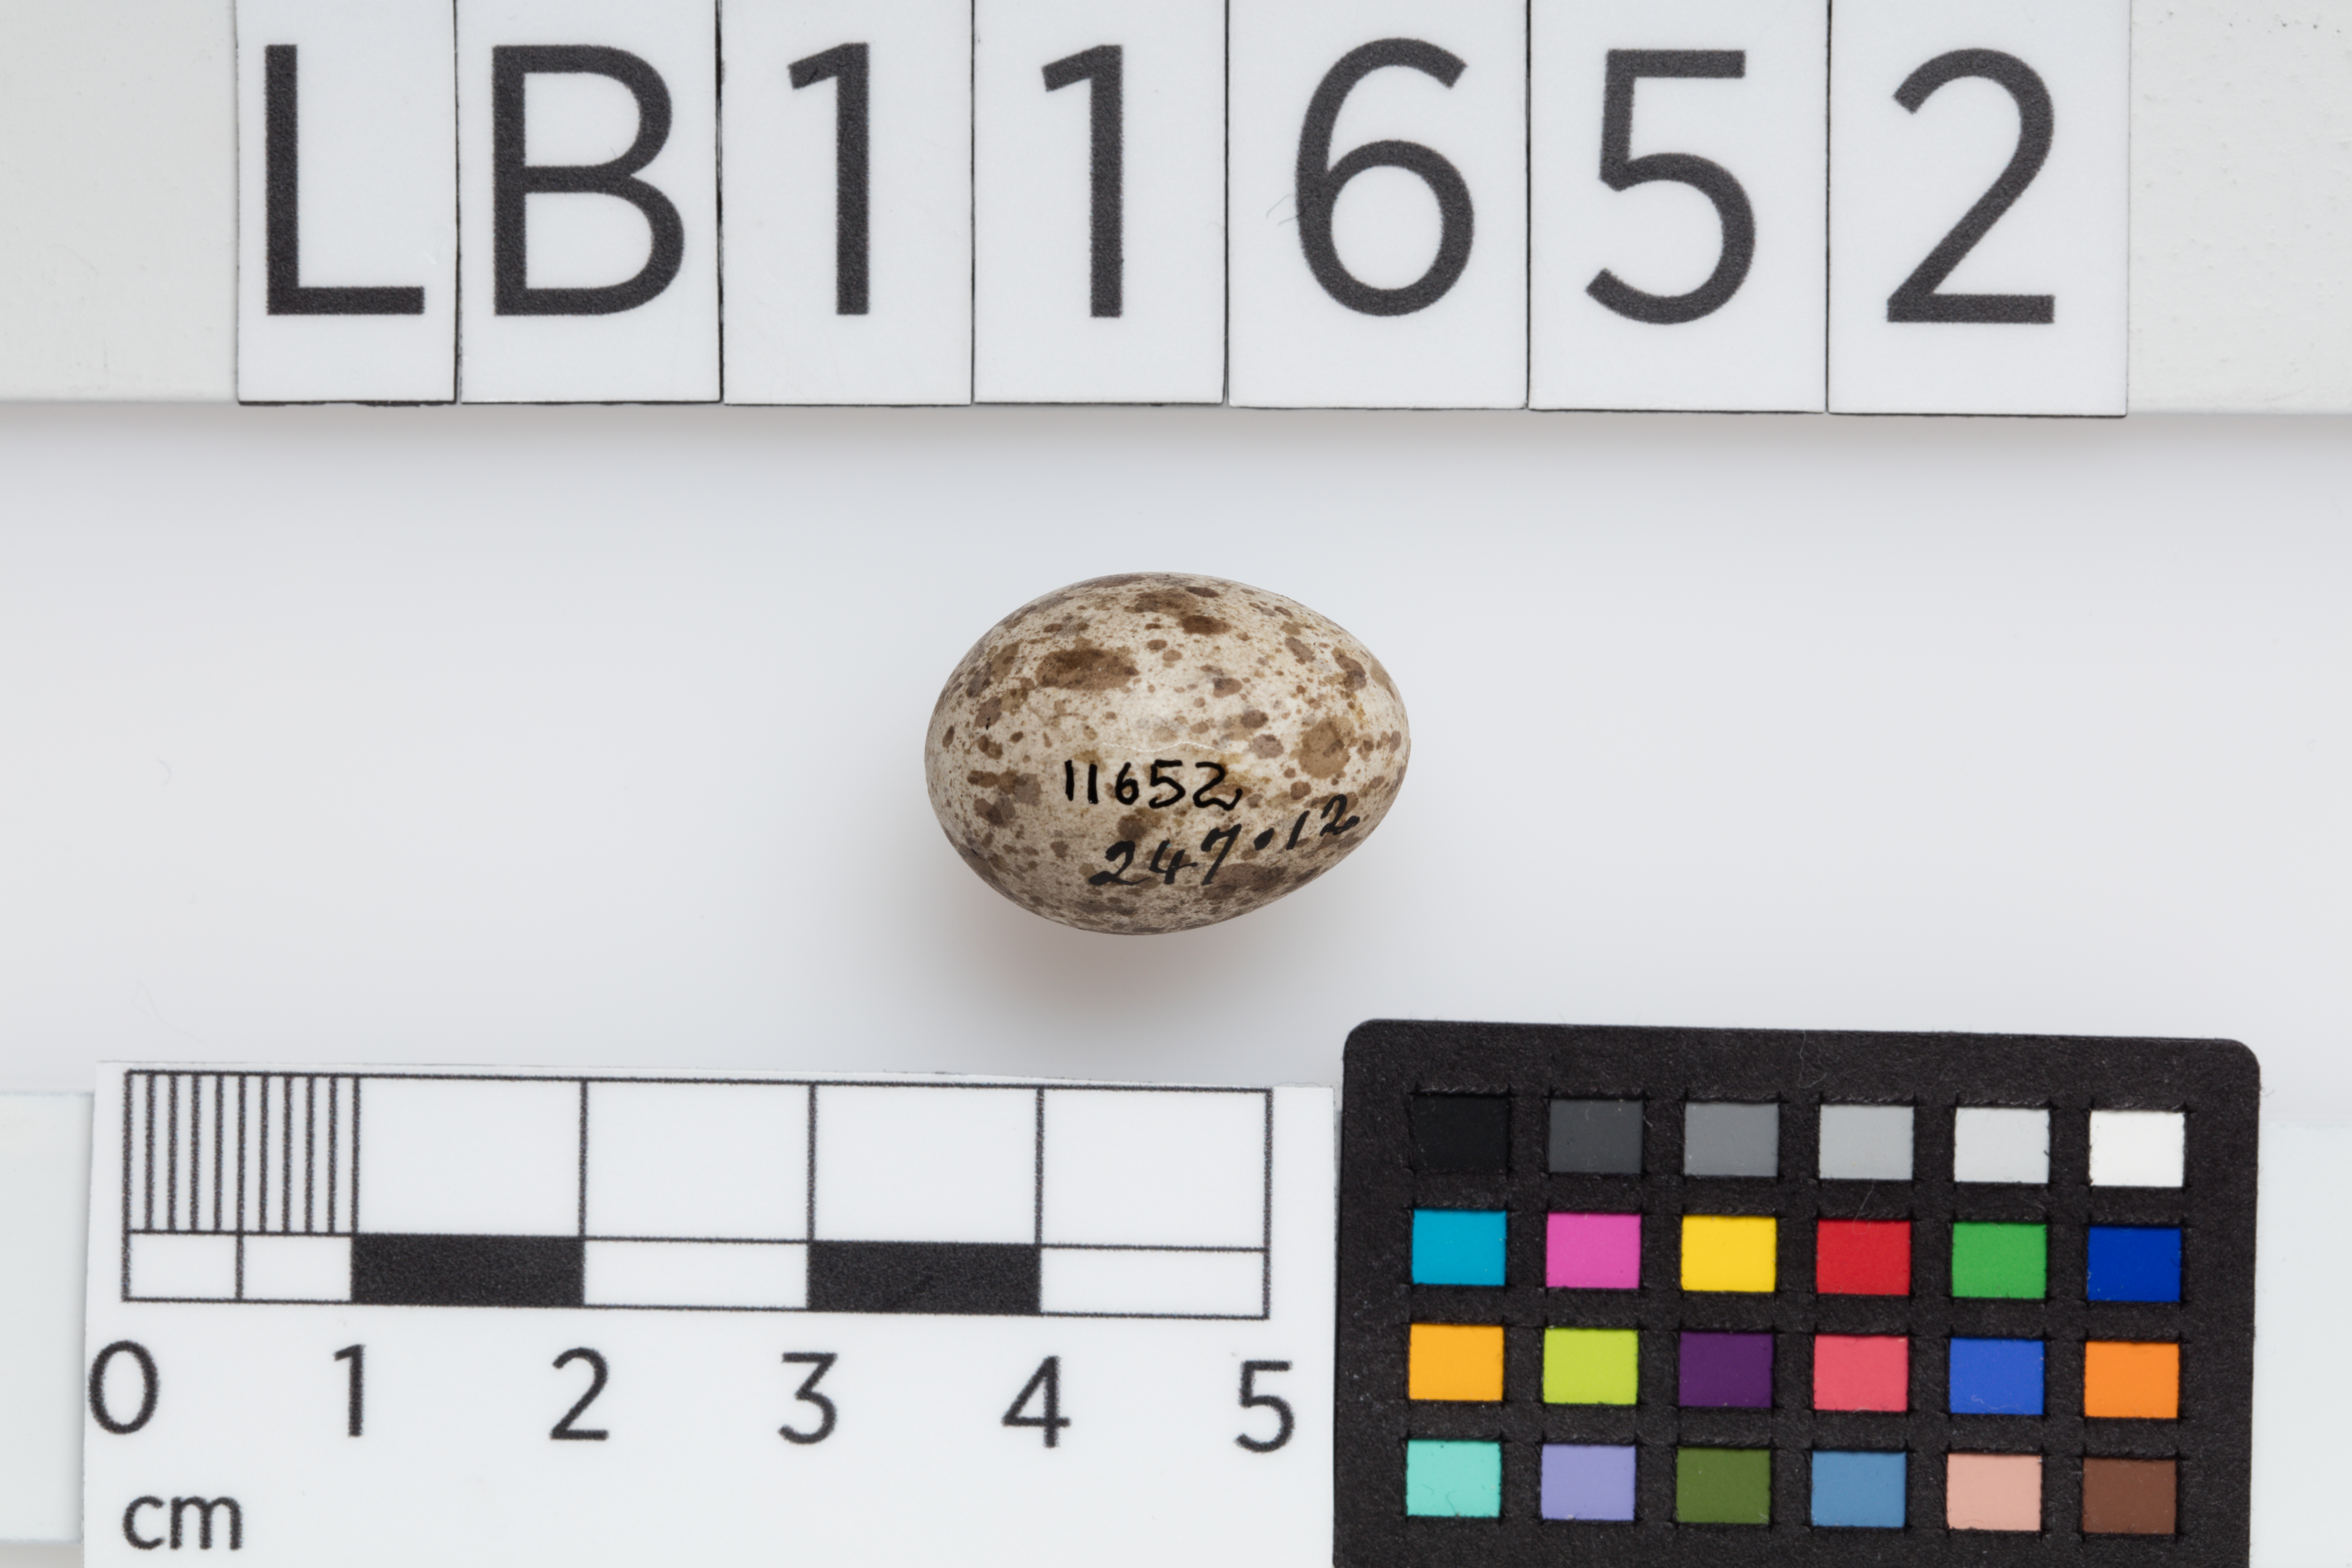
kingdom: Animalia
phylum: Chordata
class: Aves
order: Passeriformes
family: Passeridae
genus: Passer
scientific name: Passer domesticus
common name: House sparrow
